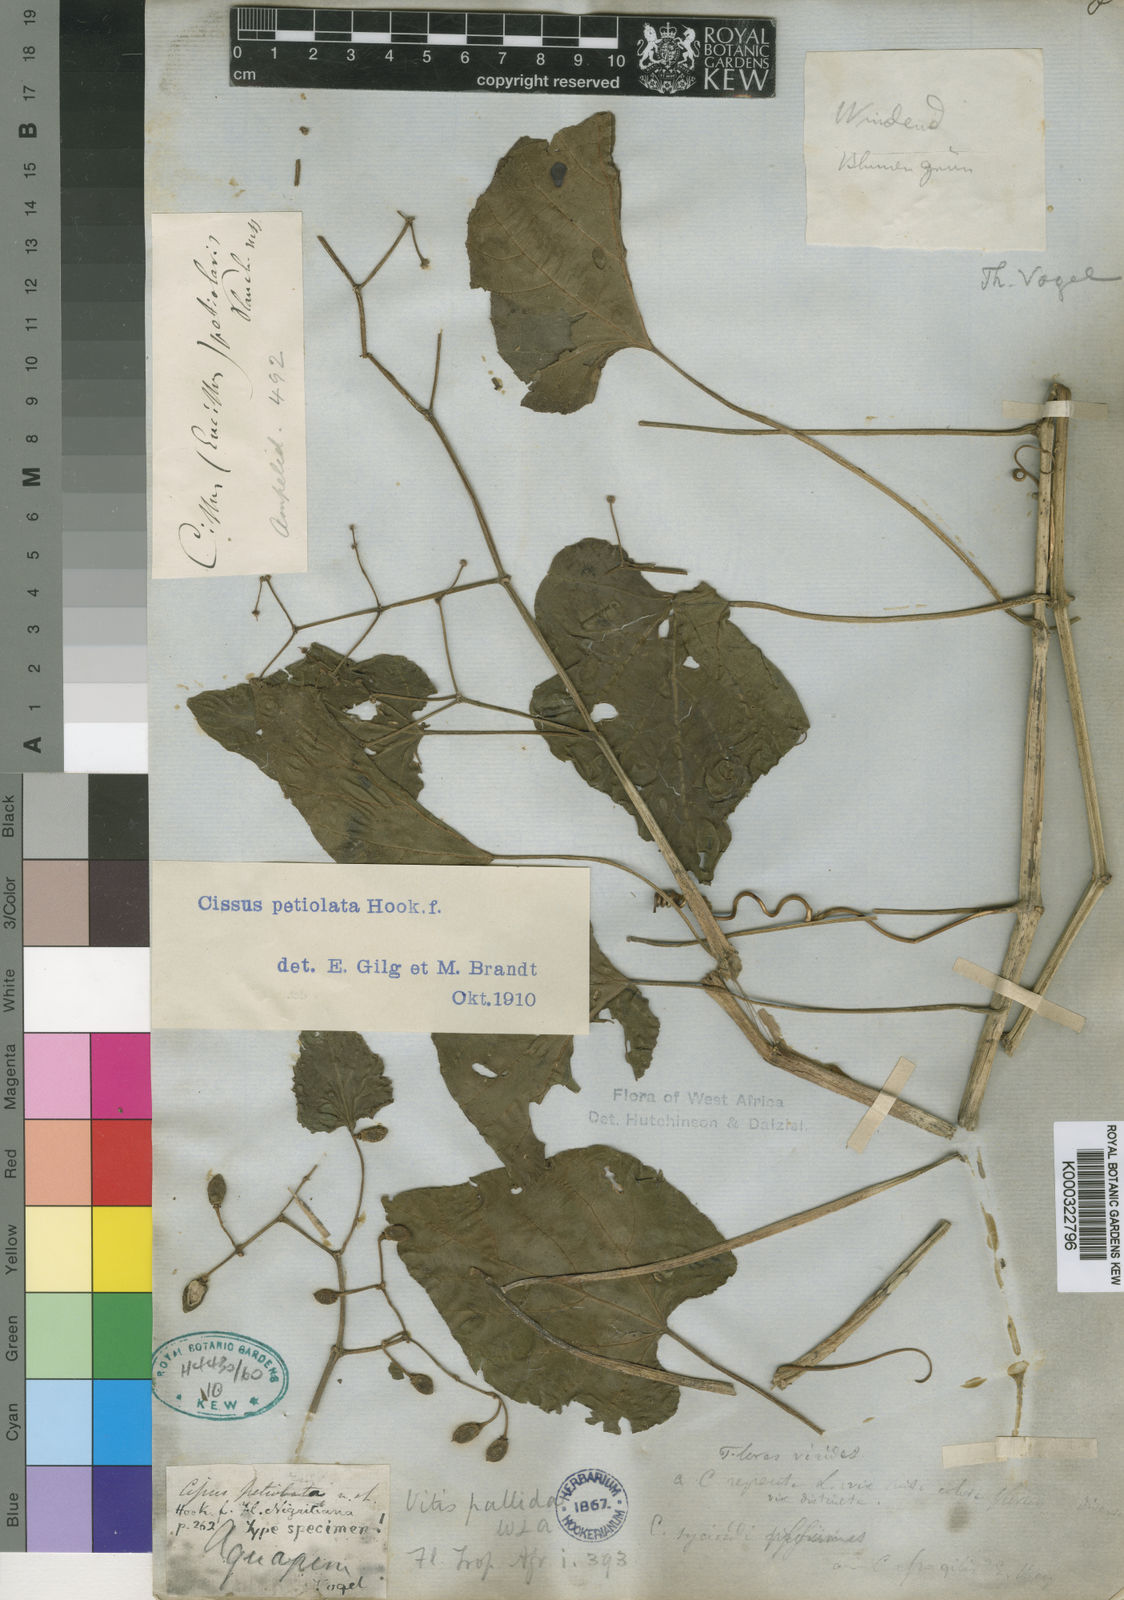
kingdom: Plantae
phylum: Tracheophyta
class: Magnoliopsida
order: Vitales
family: Vitaceae
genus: Cissus
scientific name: Cissus petiolata
